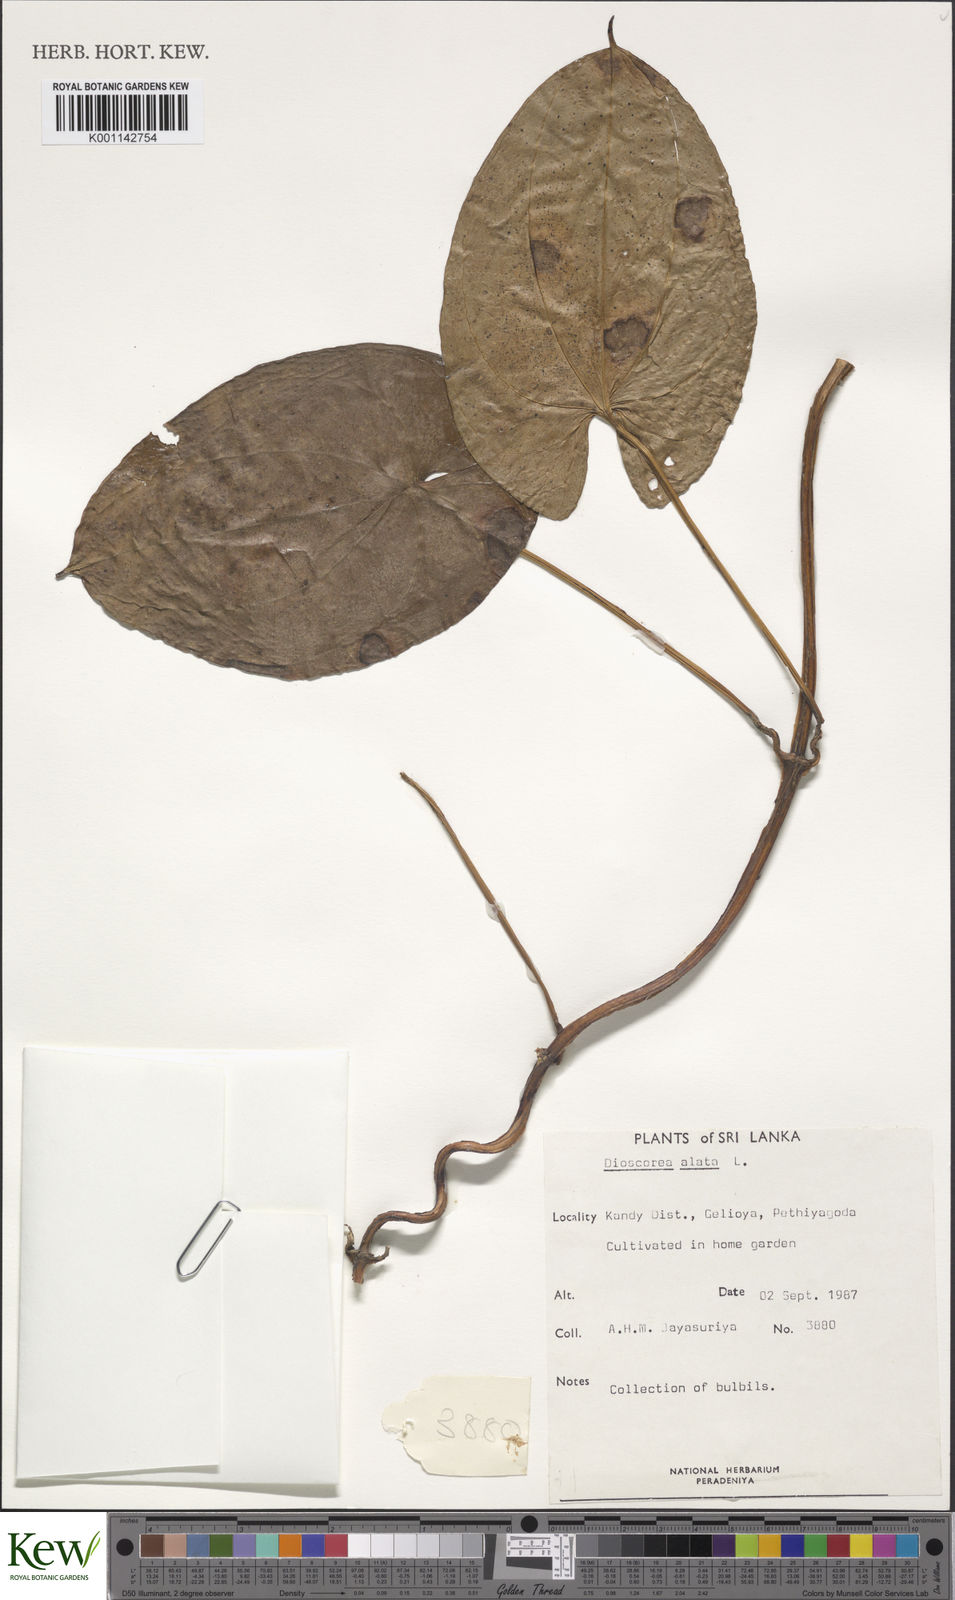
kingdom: Plantae
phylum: Tracheophyta
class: Liliopsida
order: Dioscoreales
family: Dioscoreaceae
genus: Dioscorea
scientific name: Dioscorea alata
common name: Water yam
